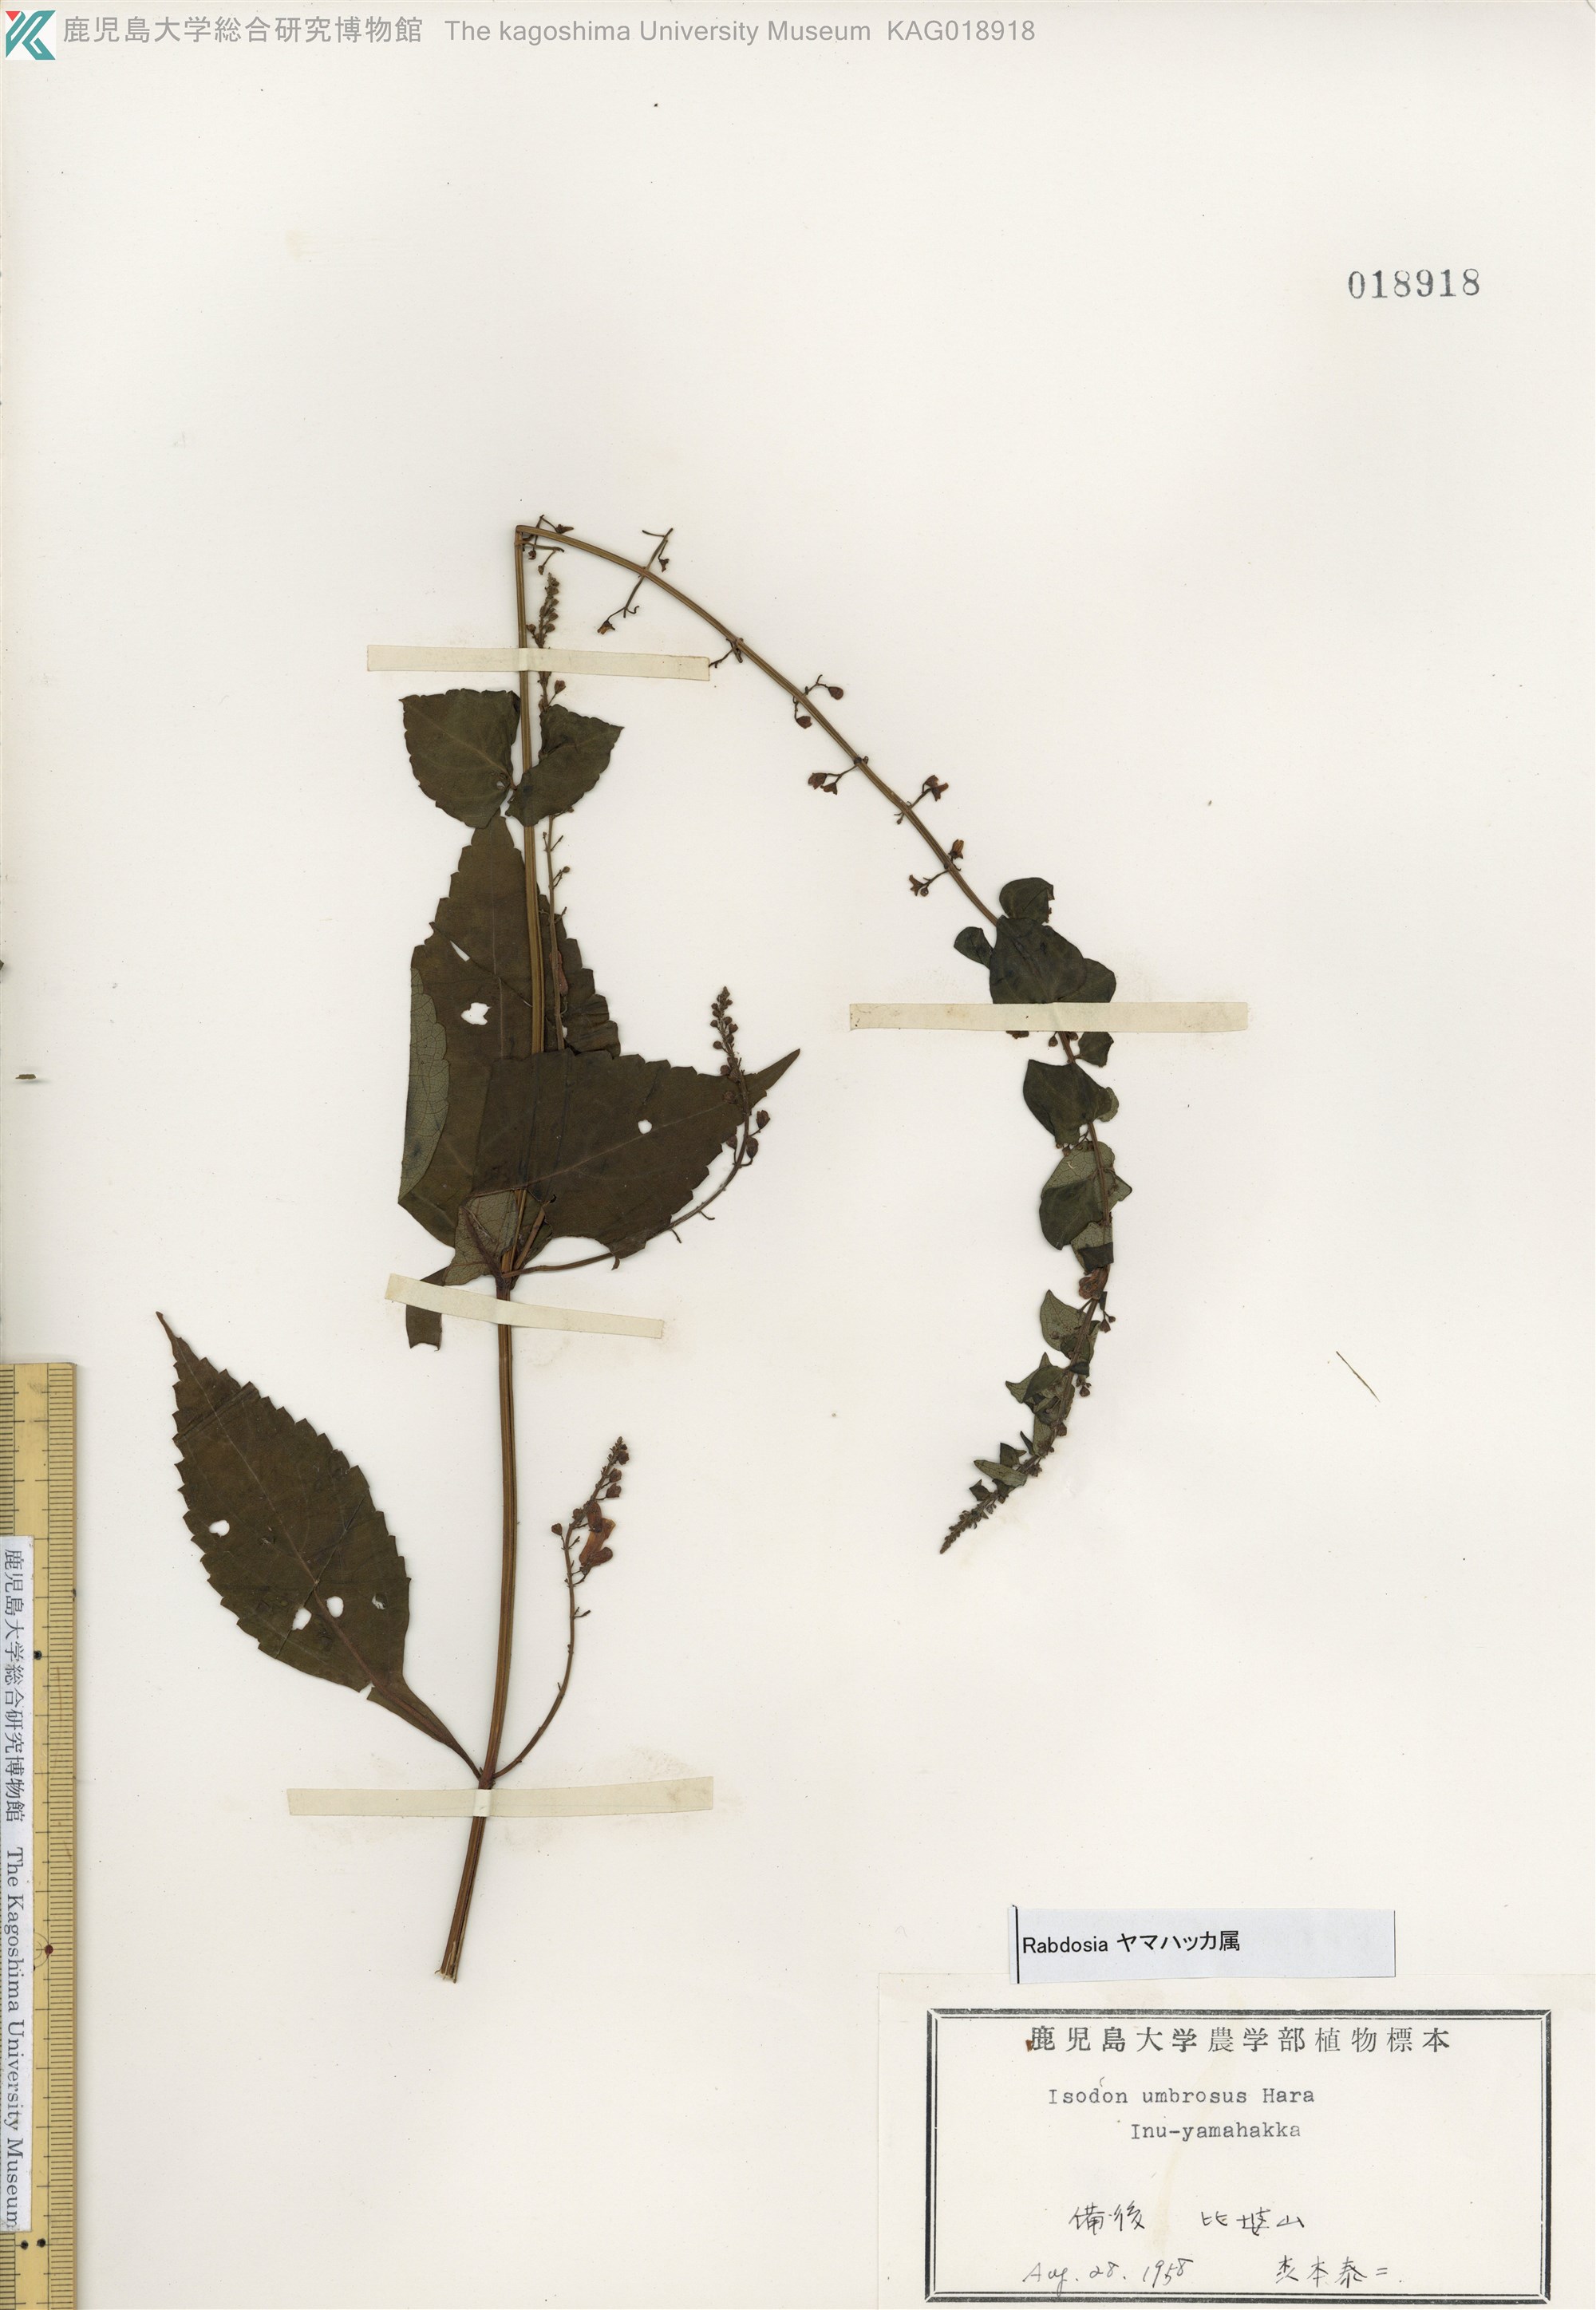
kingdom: Plantae
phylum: Tracheophyta
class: Magnoliopsida
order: Lamiales
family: Lamiaceae
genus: Isodon
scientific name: Isodon umbrosus
